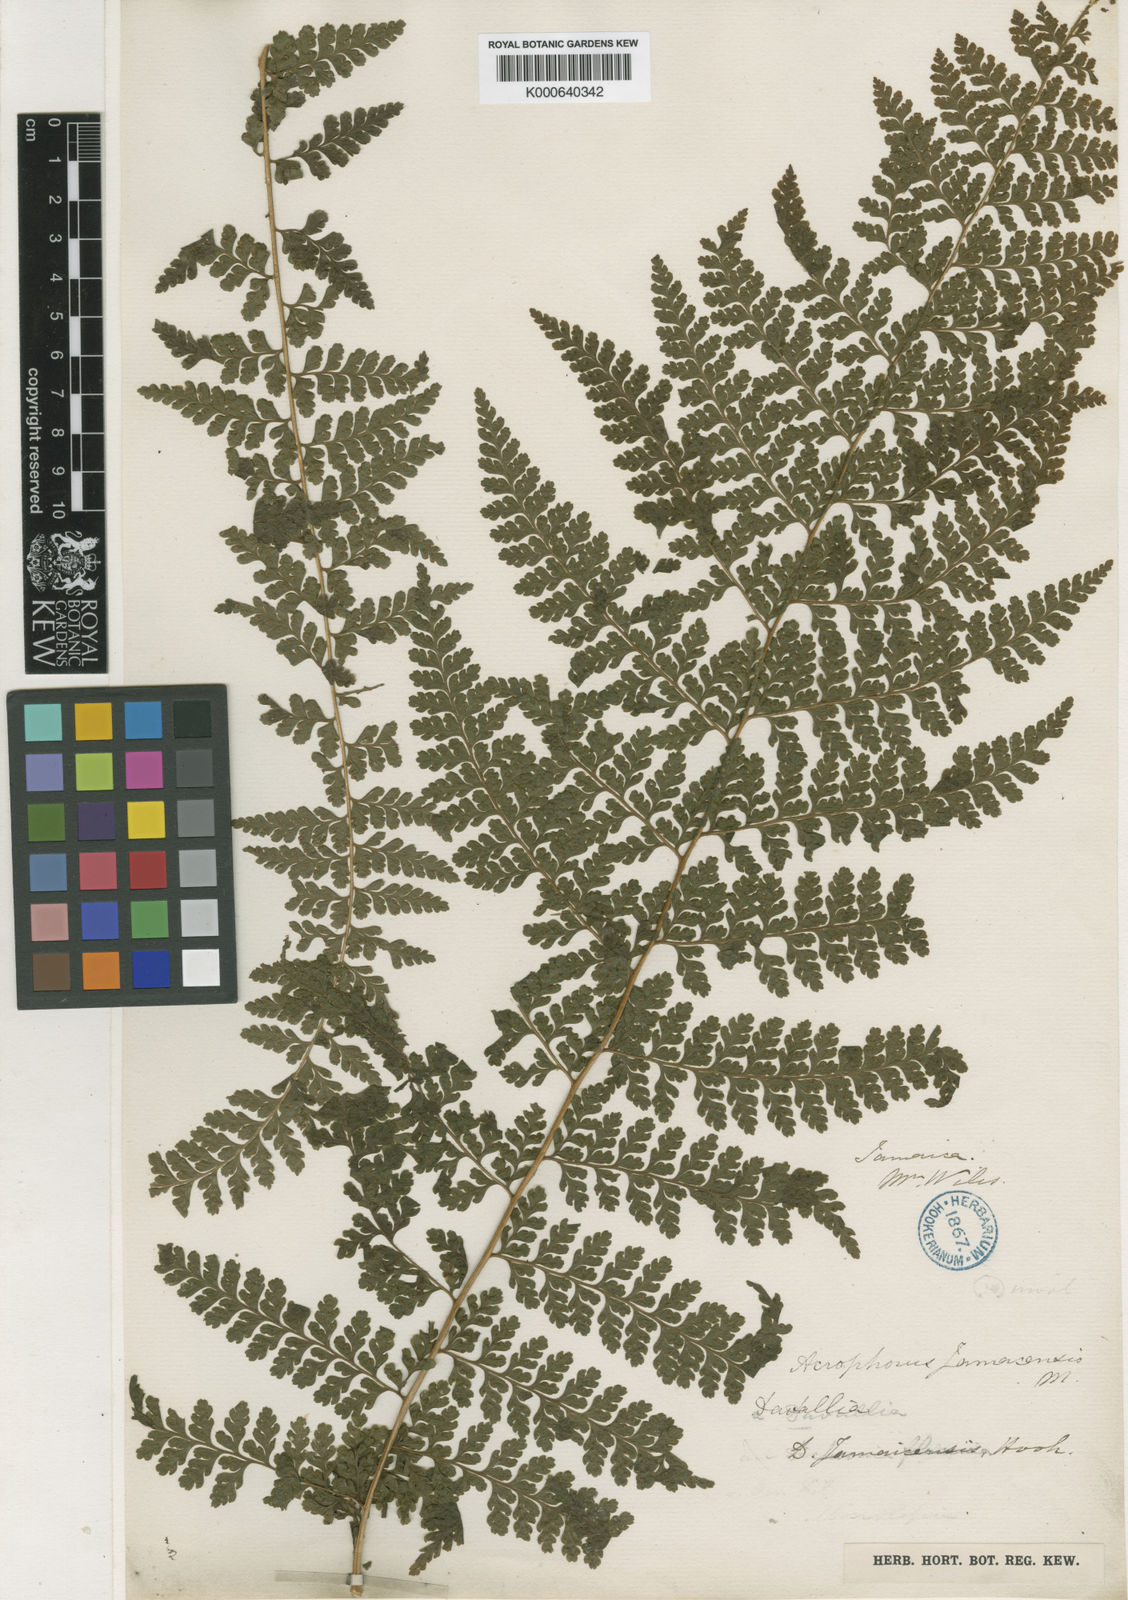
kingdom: Plantae
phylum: Tracheophyta
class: Polypodiopsida
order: Polypodiales
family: Dennstaedtiaceae
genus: Microlepia
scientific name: Microlepia
